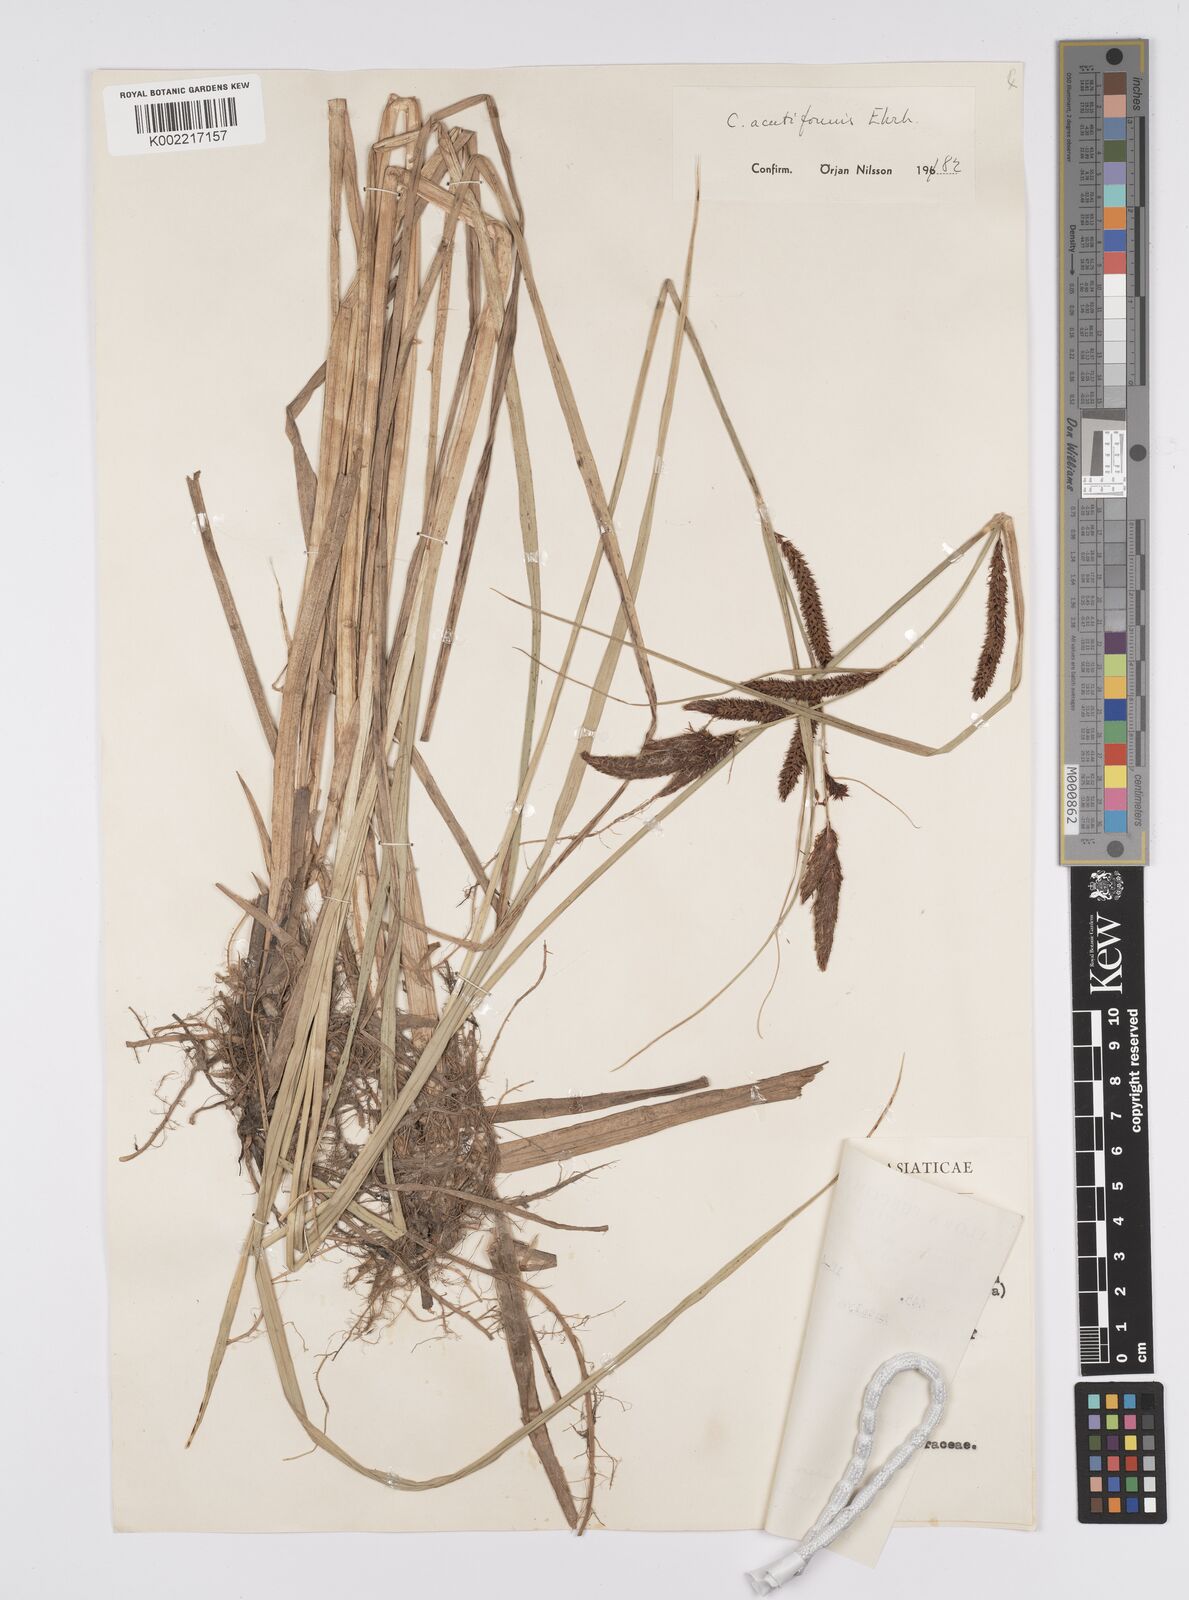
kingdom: Plantae
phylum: Tracheophyta
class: Liliopsida
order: Poales
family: Cyperaceae
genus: Carex
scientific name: Carex acutiformis
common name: Lesser pond-sedge
